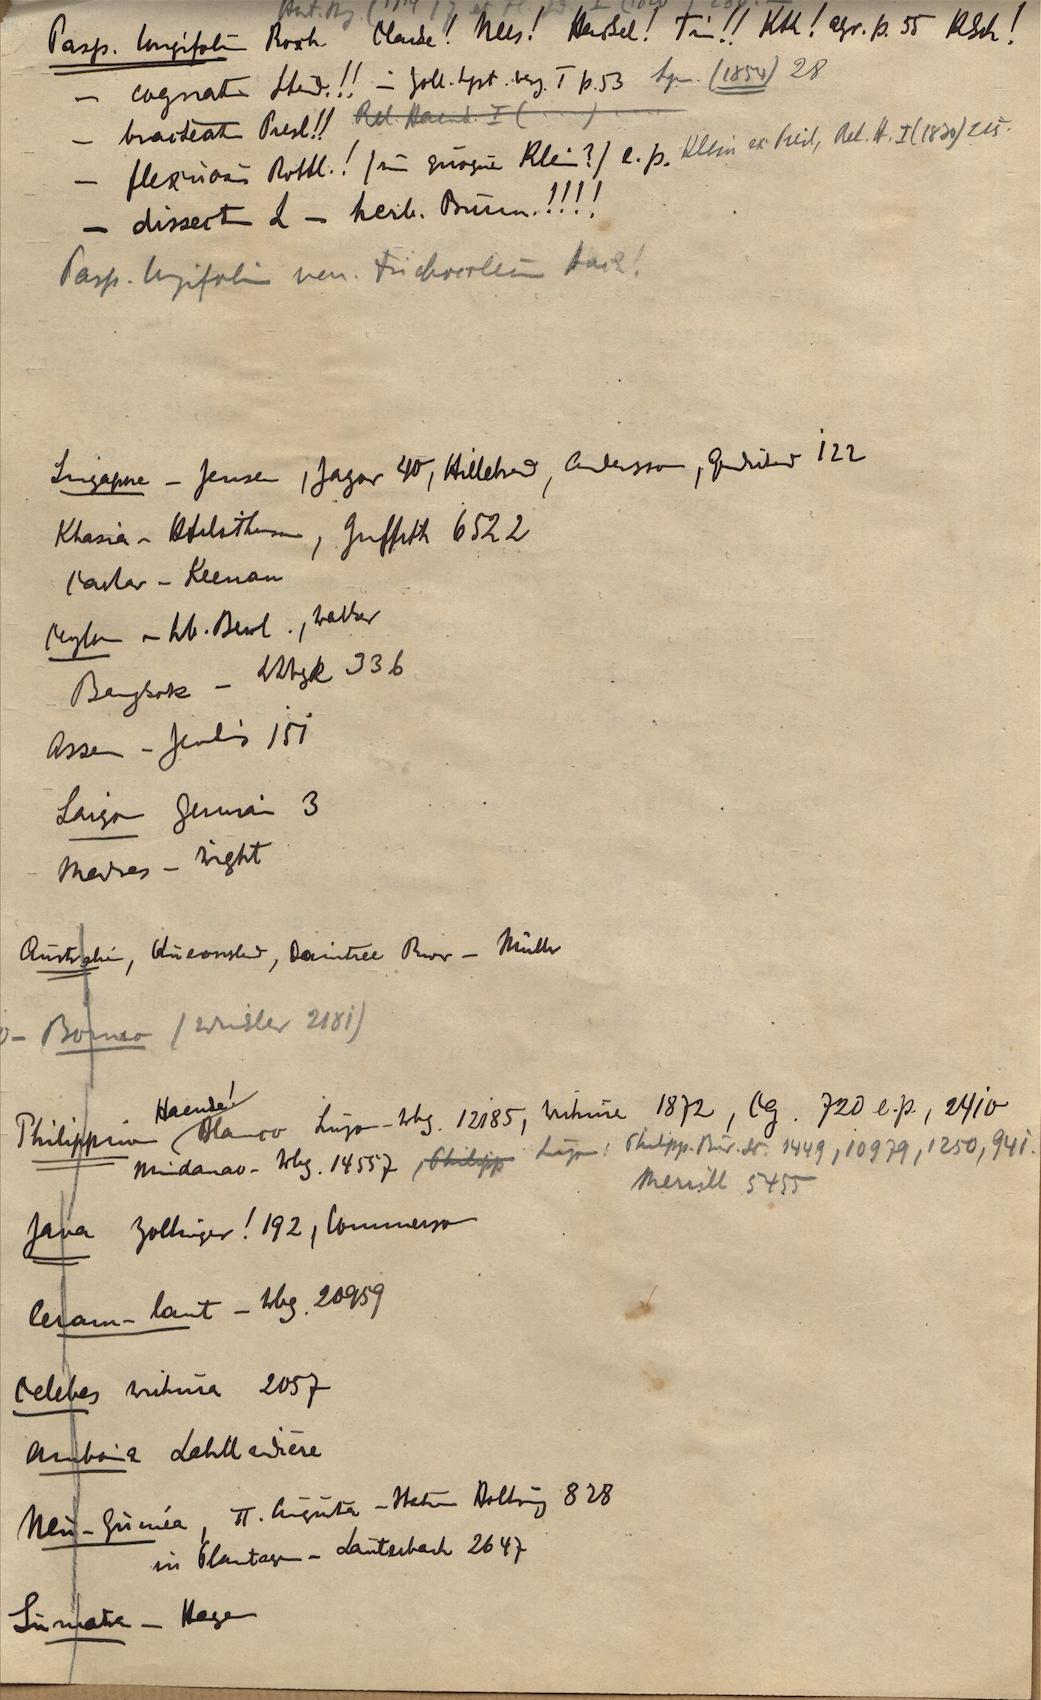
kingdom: Plantae
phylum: Tracheophyta
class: Liliopsida
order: Poales
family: Poaceae
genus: Sporobolus
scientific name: Sporobolus maritimus
